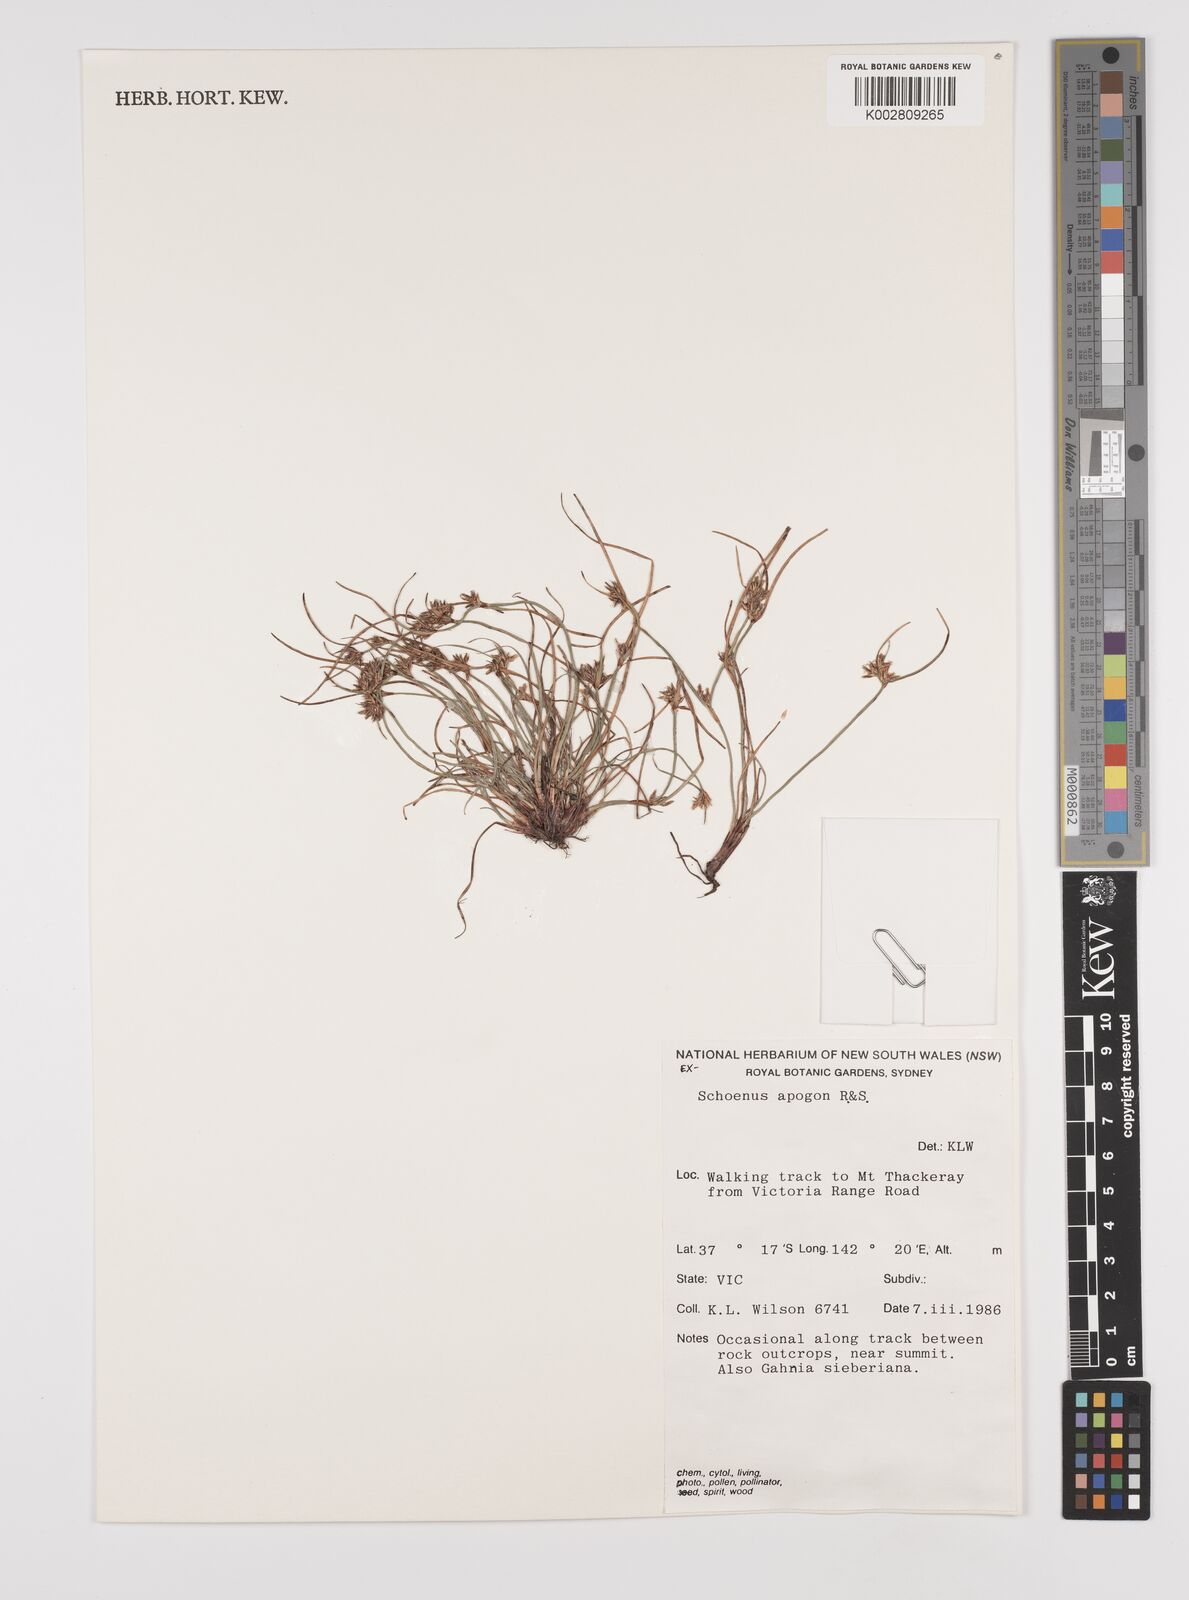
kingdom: Plantae
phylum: Tracheophyta
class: Liliopsida
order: Poales
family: Cyperaceae
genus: Schoenus
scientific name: Schoenus apogon
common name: Smooth bogrush
